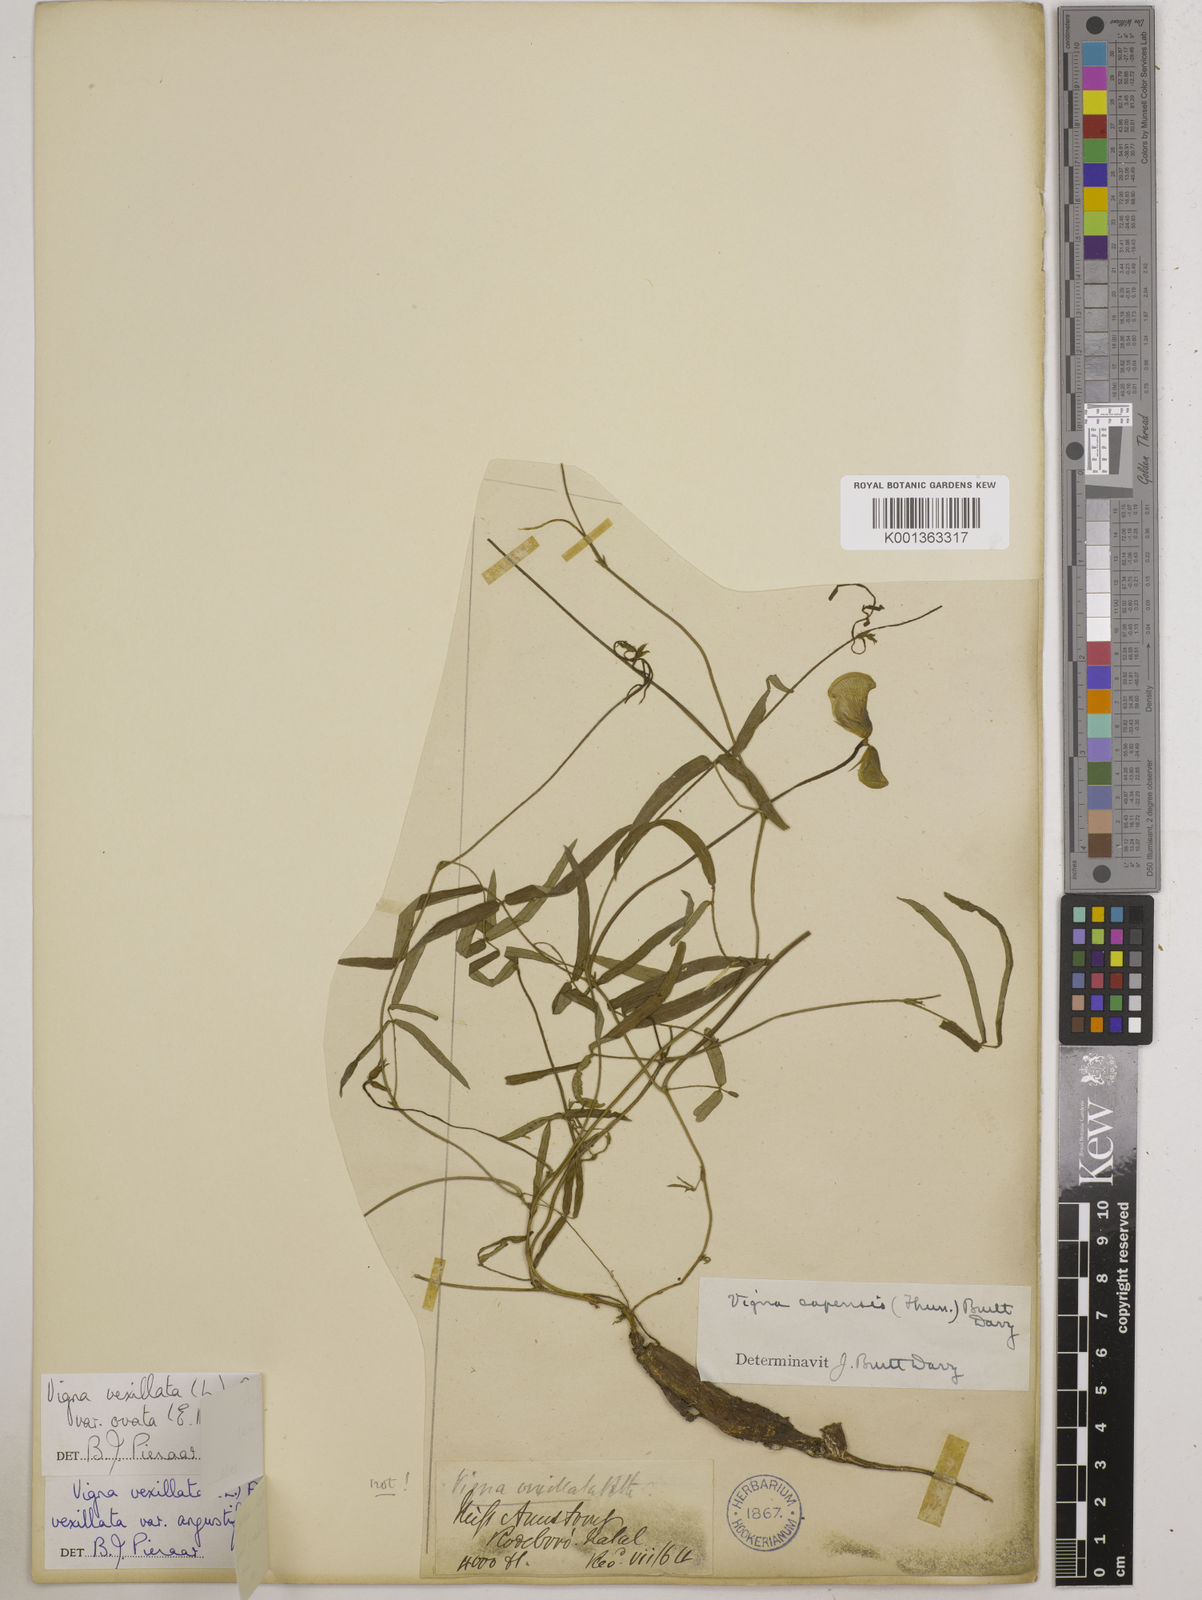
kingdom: Plantae
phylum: Tracheophyta
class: Magnoliopsida
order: Fabales
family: Fabaceae
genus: Vigna
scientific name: Vigna
